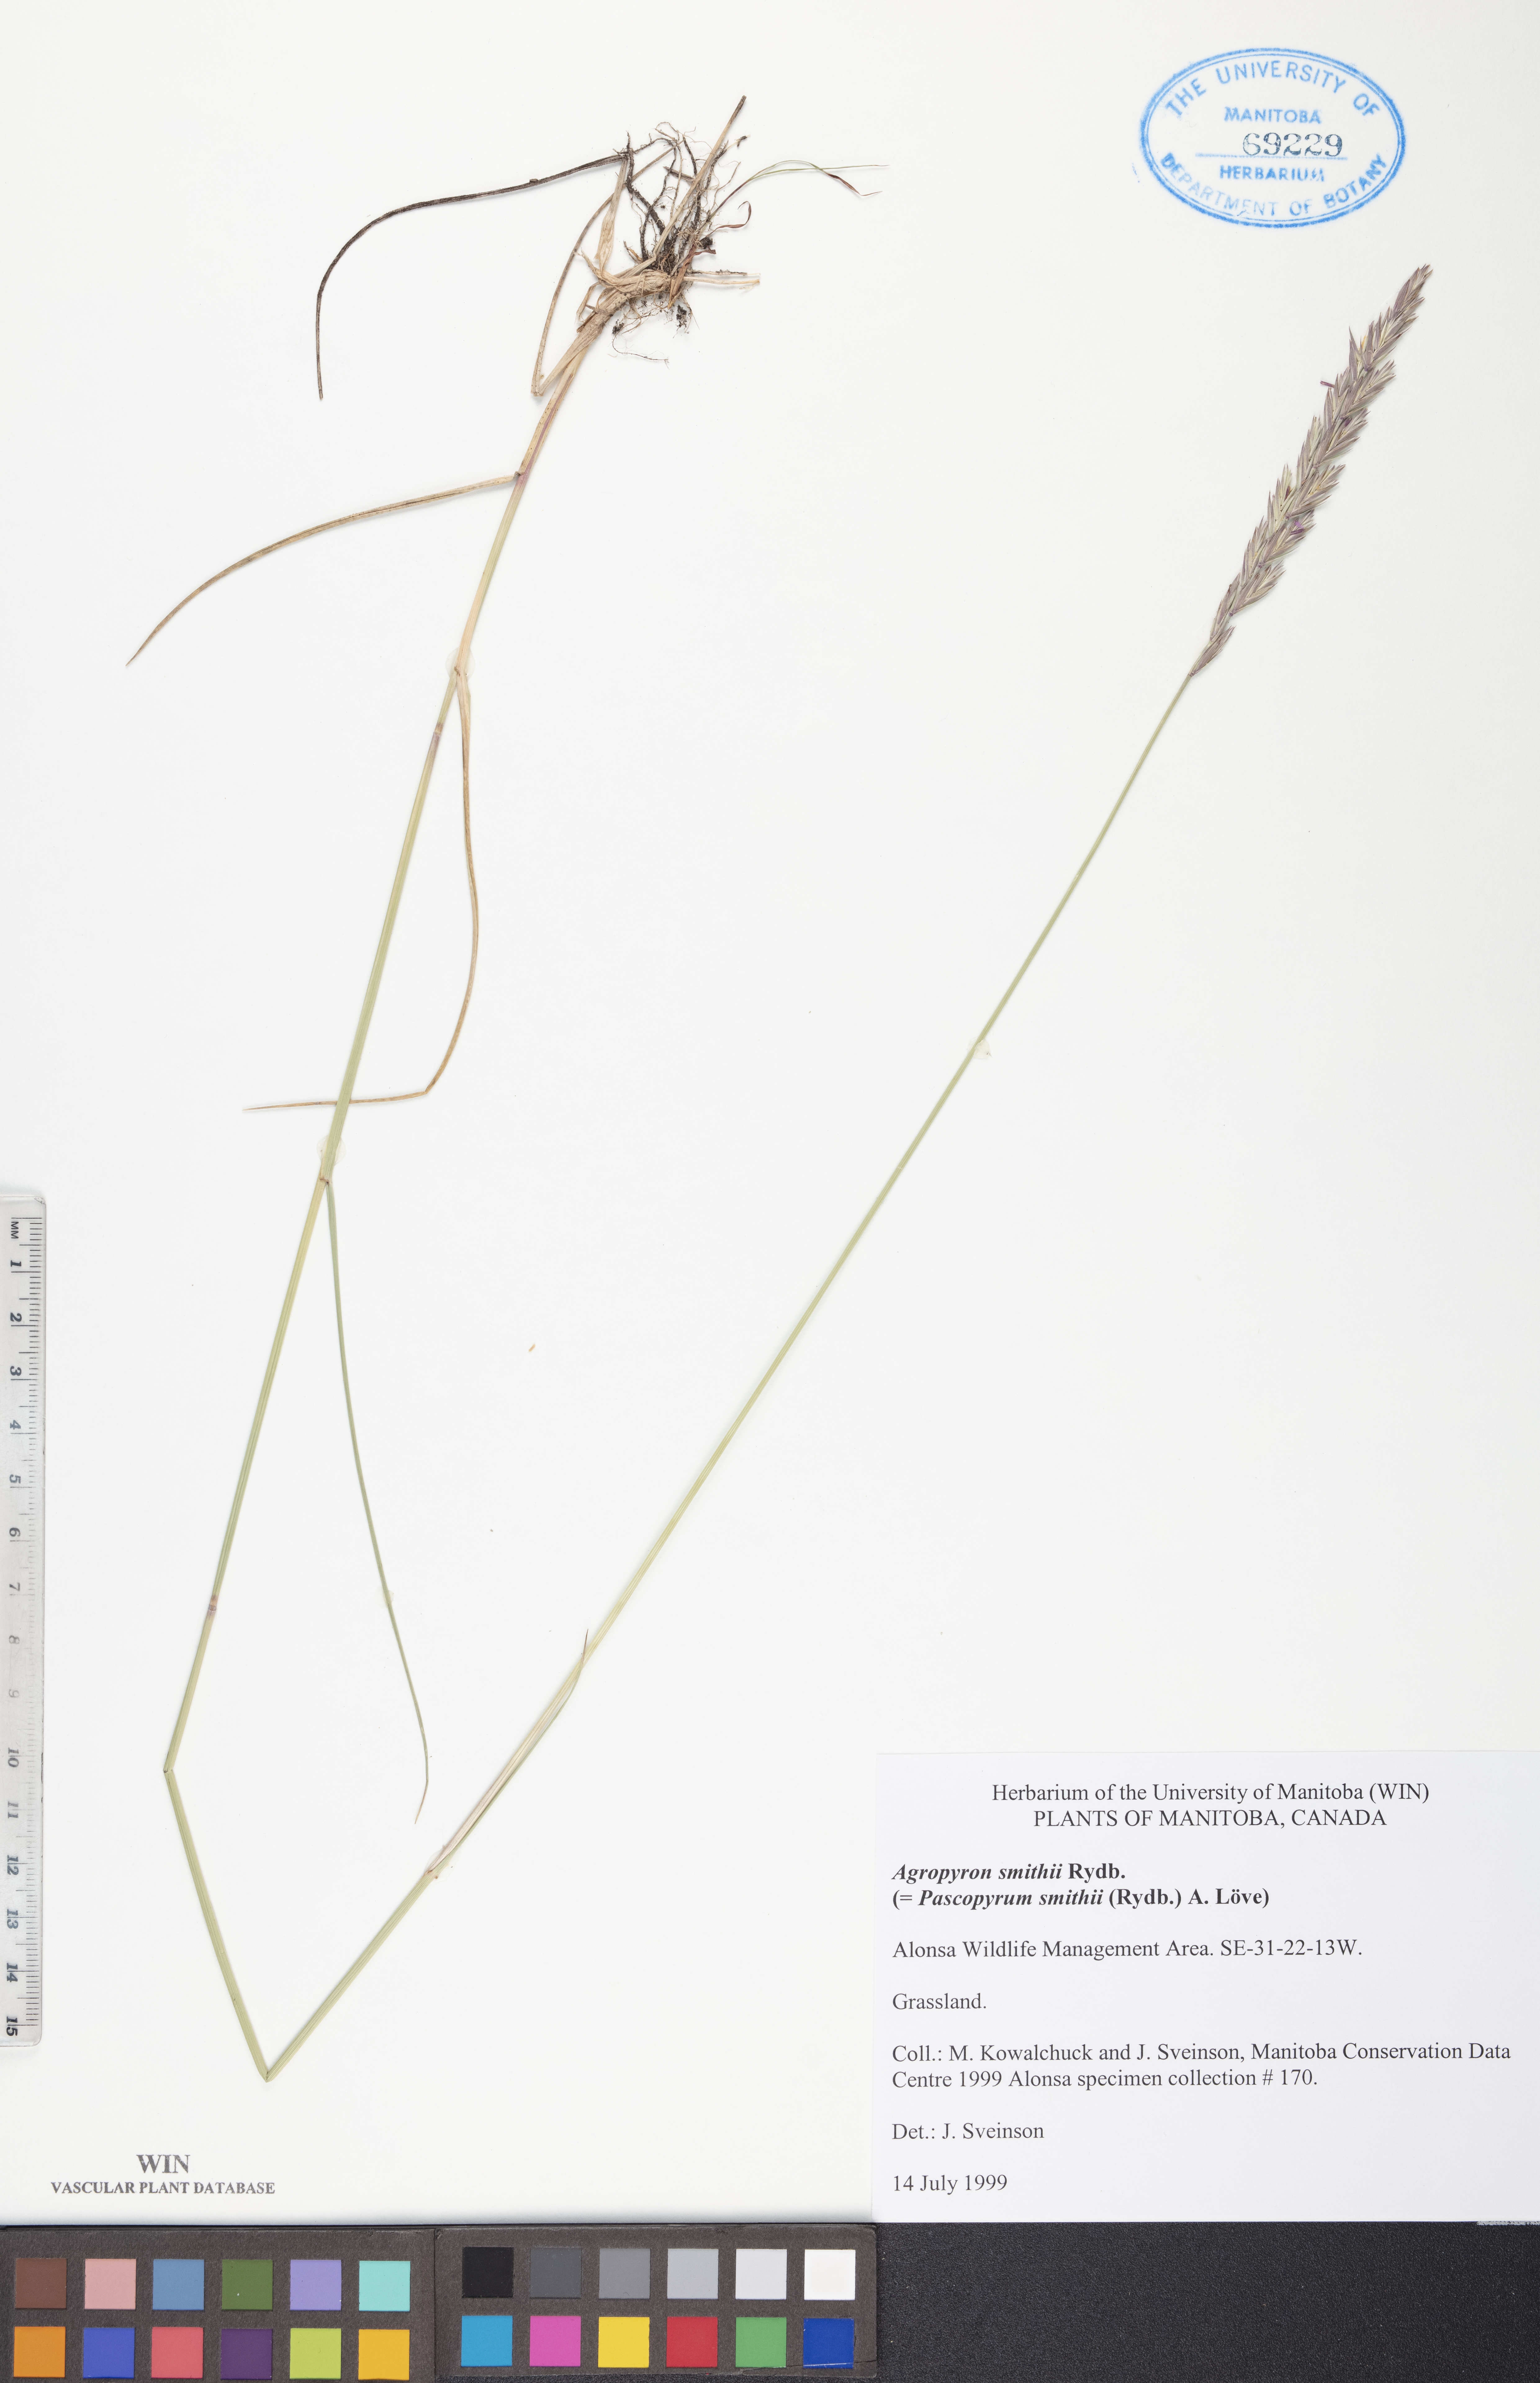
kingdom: Plantae
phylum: Tracheophyta
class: Liliopsida
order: Poales
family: Poaceae
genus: Elymus
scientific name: Elymus smithii
